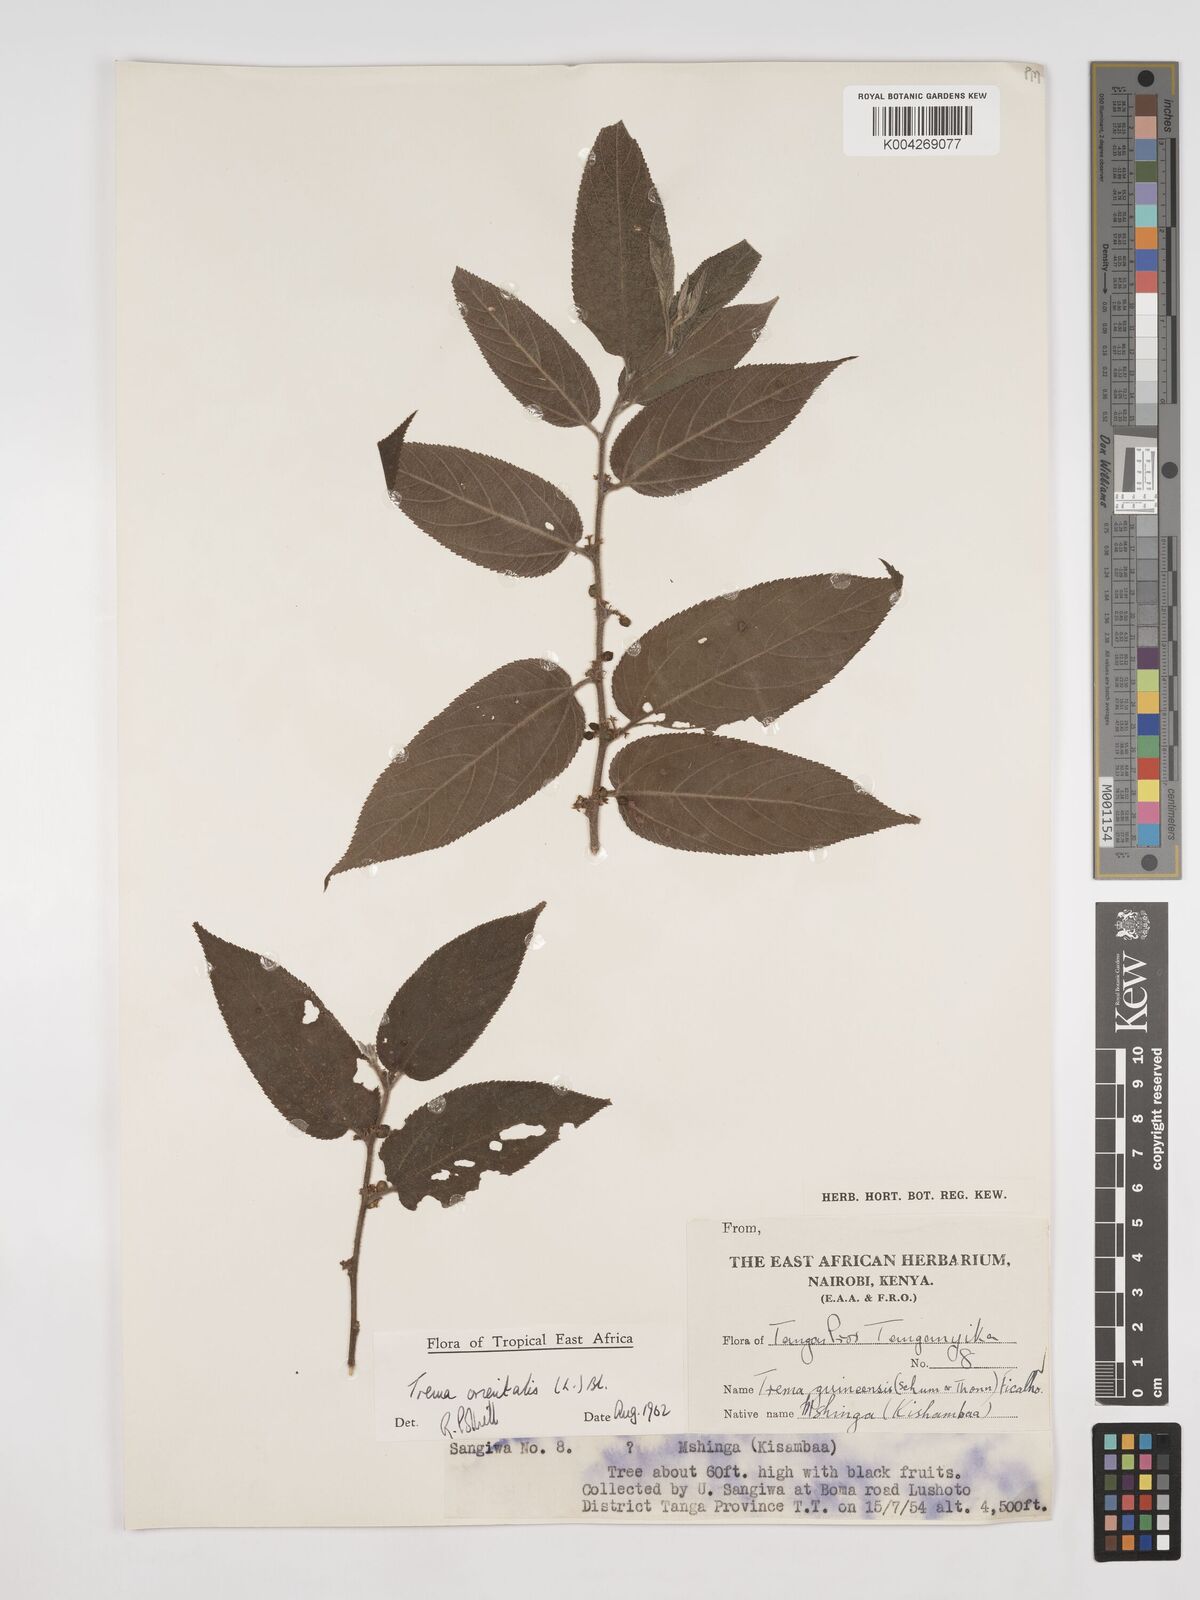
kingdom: Plantae
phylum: Tracheophyta
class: Magnoliopsida
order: Rosales
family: Cannabaceae
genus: Trema
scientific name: Trema orientale
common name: Indian charcoal tree
